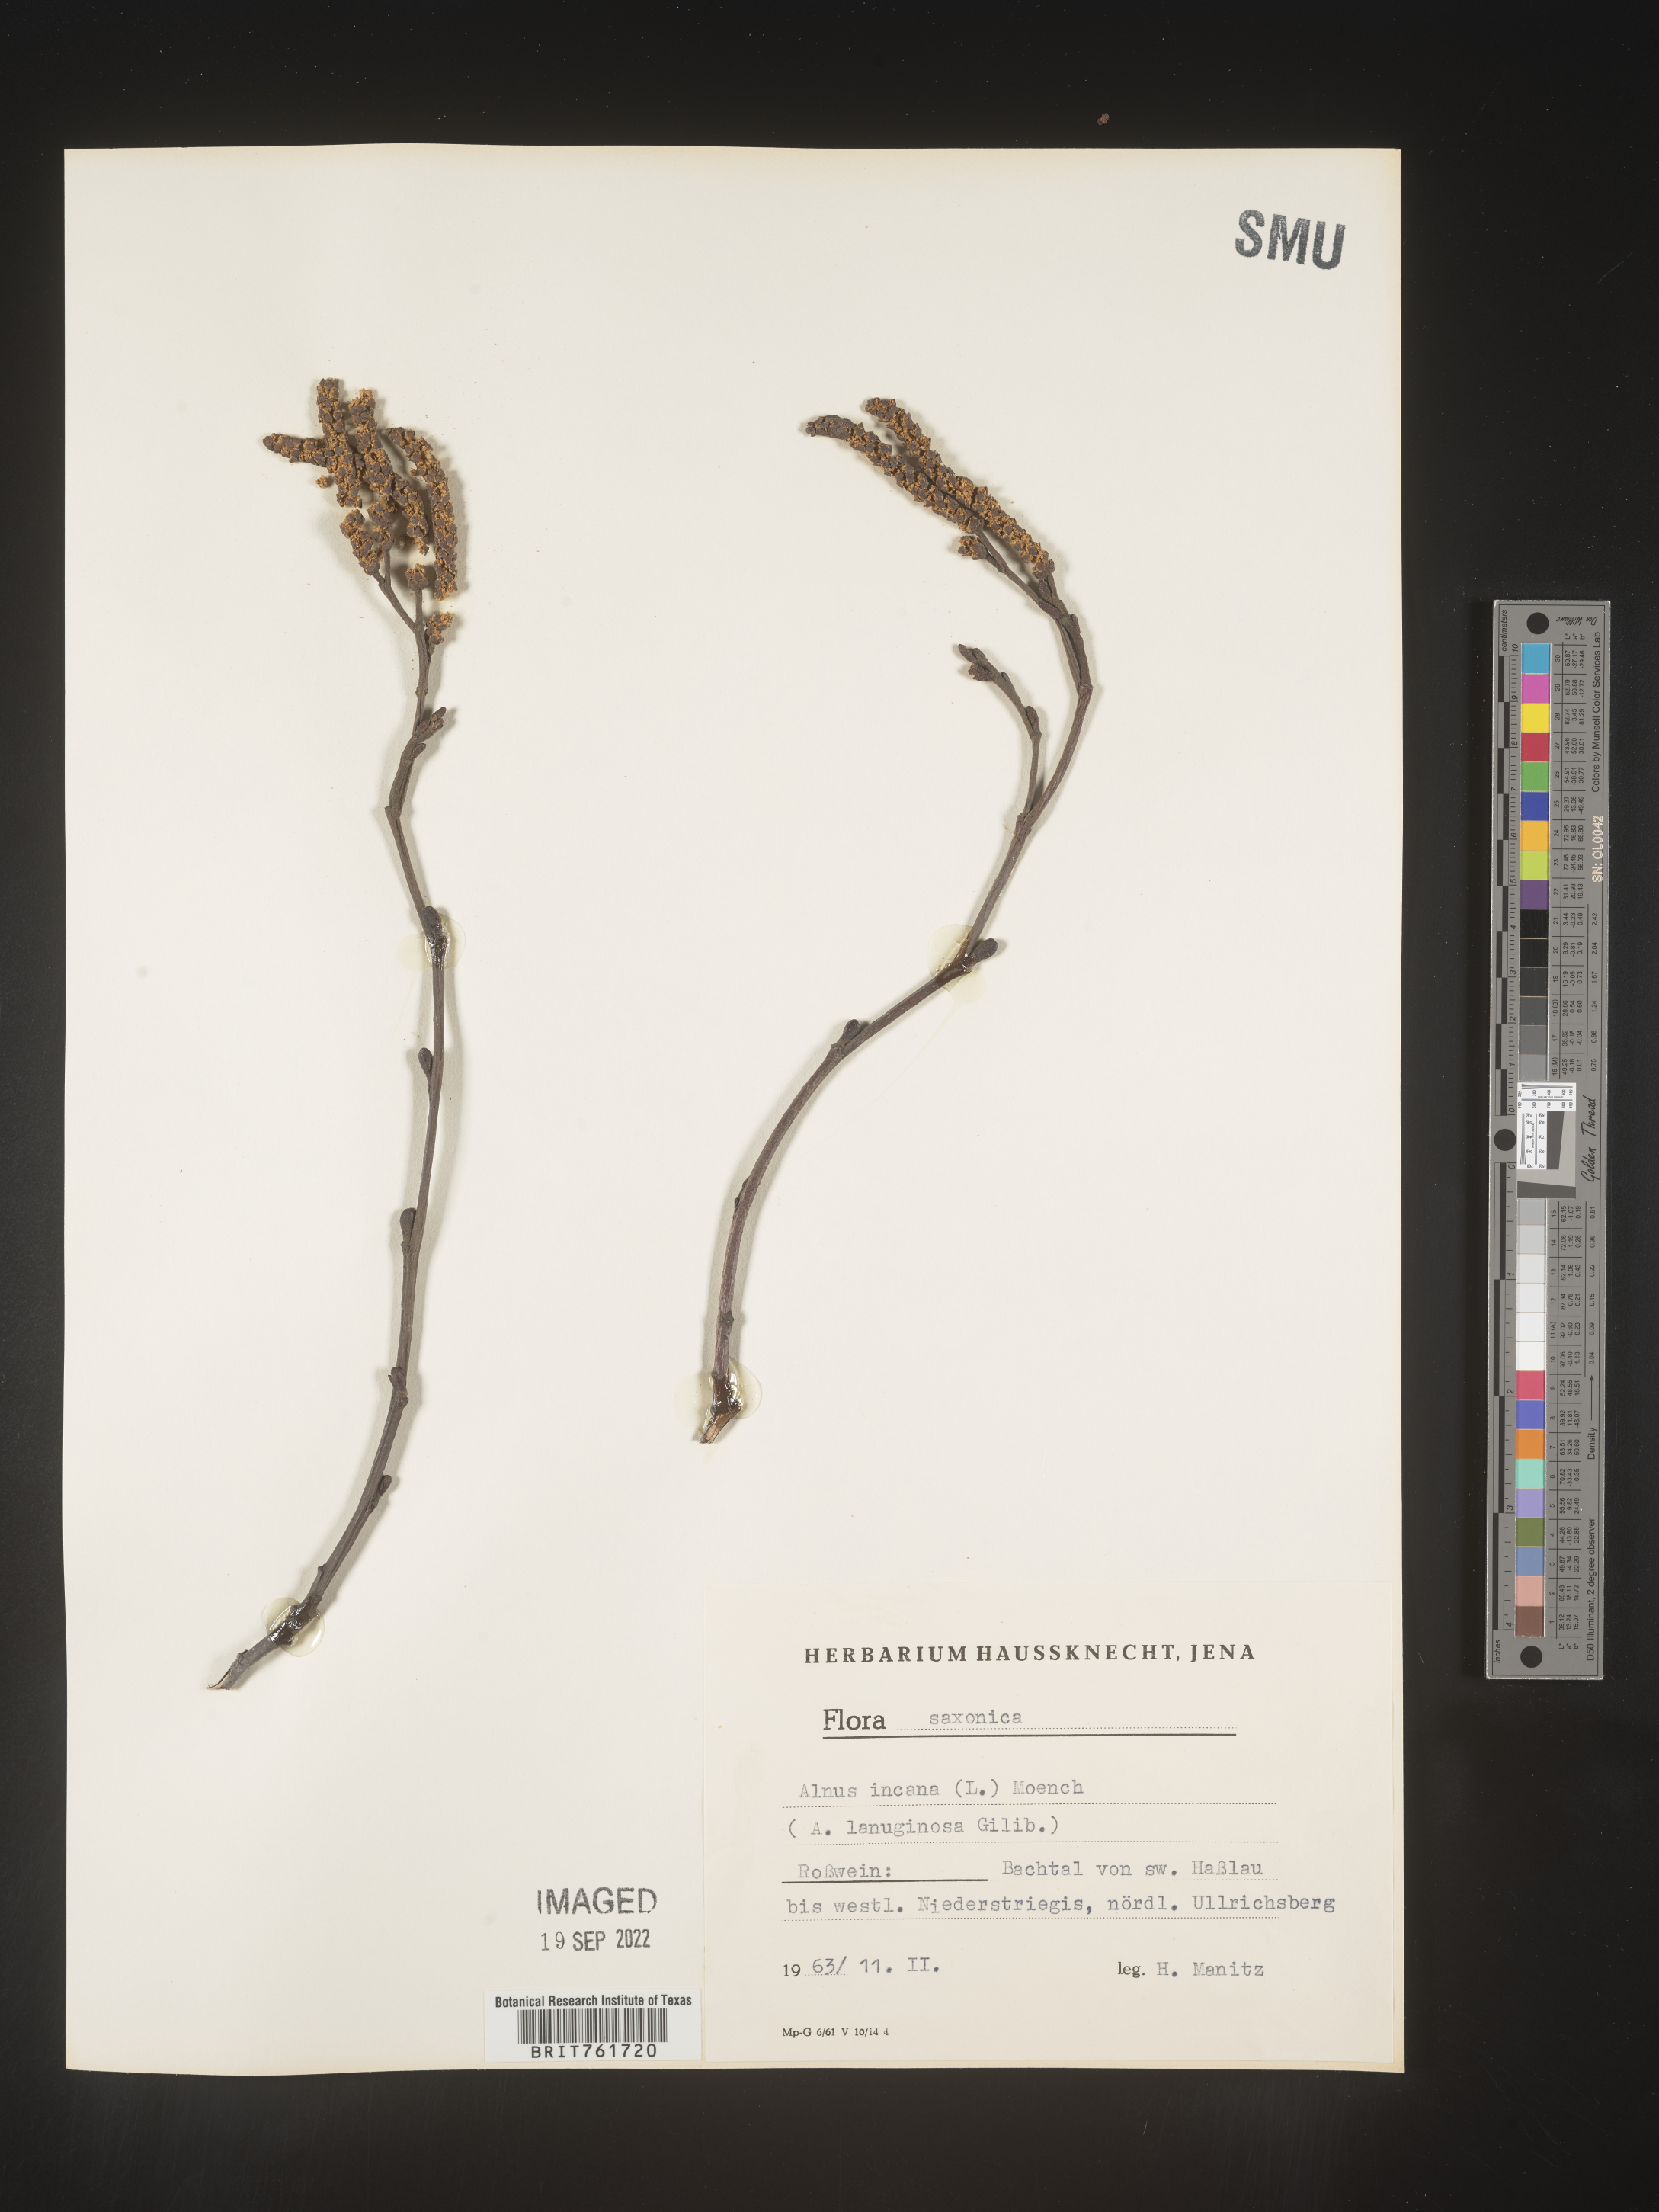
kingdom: Plantae
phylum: Tracheophyta
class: Magnoliopsida
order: Fagales
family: Betulaceae
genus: Alnus
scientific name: Alnus
